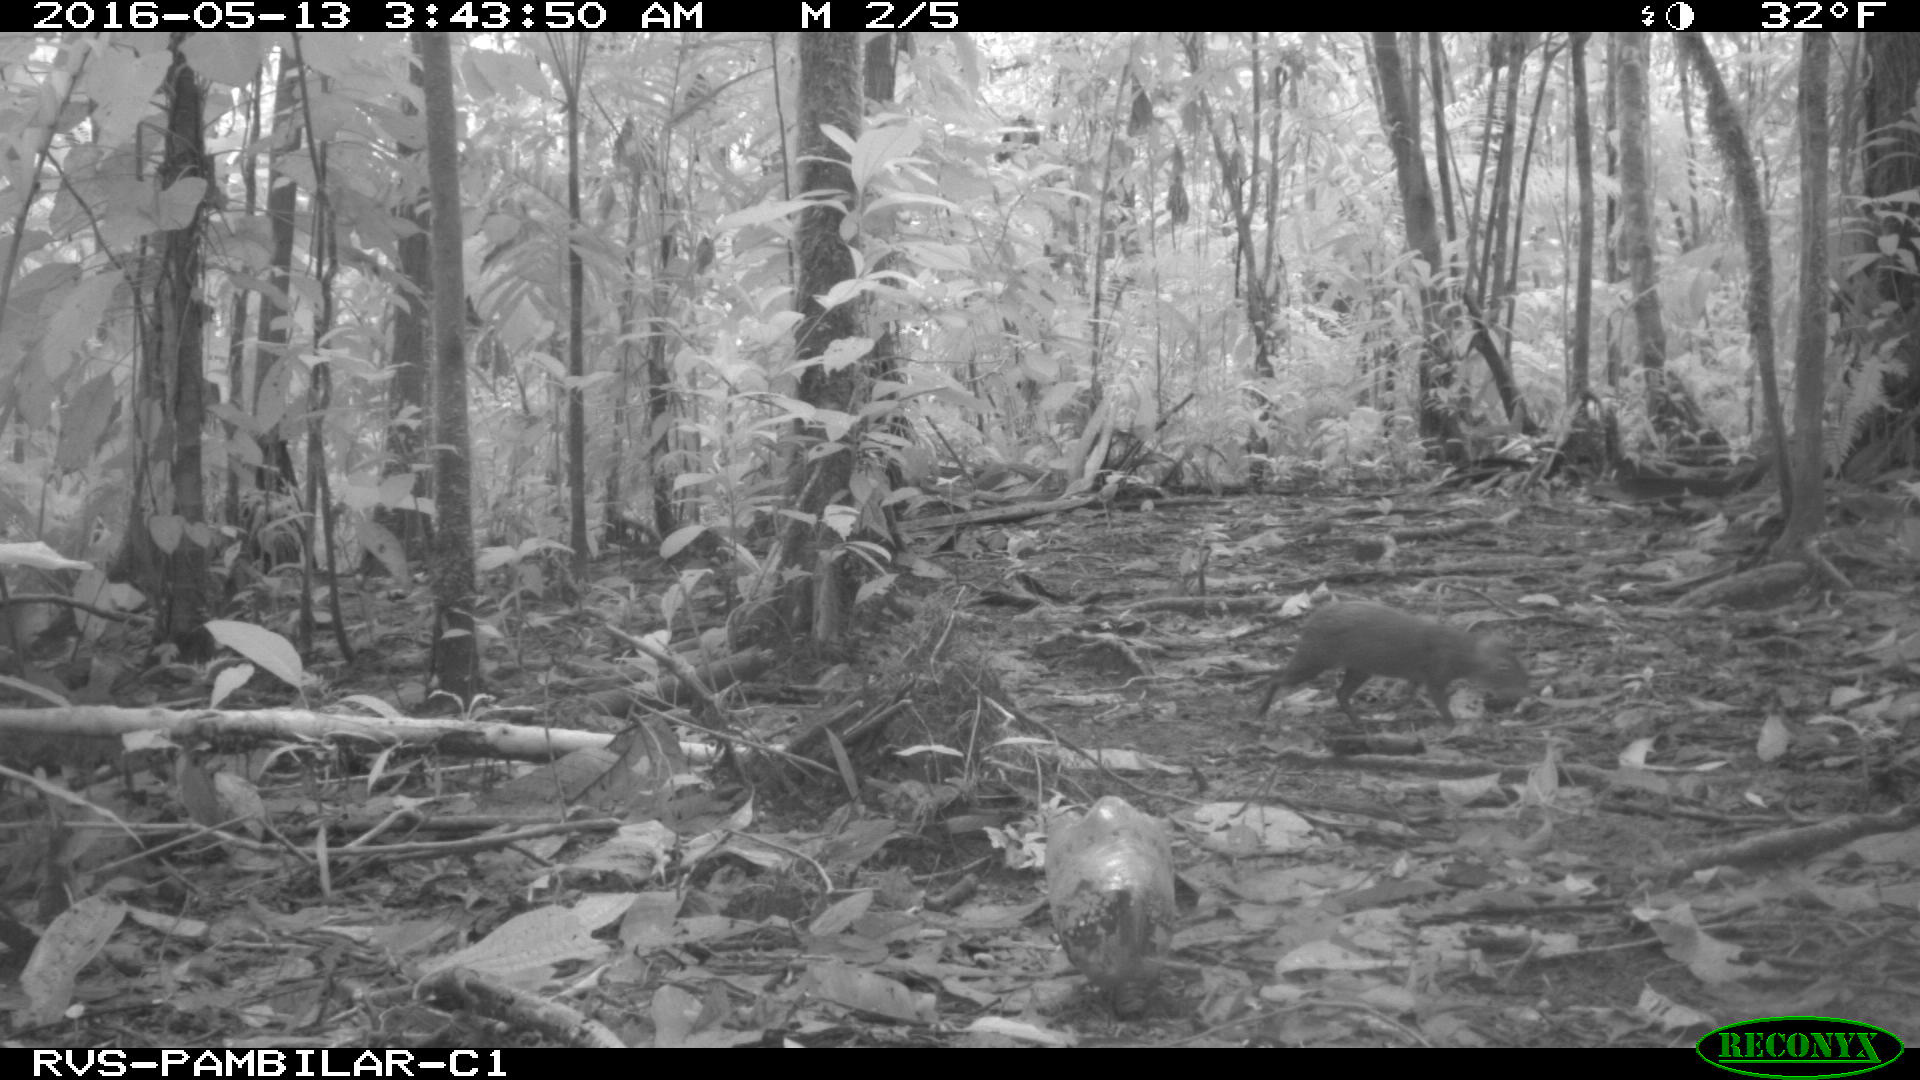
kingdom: Animalia
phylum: Chordata
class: Mammalia
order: Rodentia
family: Dasyproctidae
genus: Dasyprocta
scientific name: Dasyprocta punctata
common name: Central american agouti
